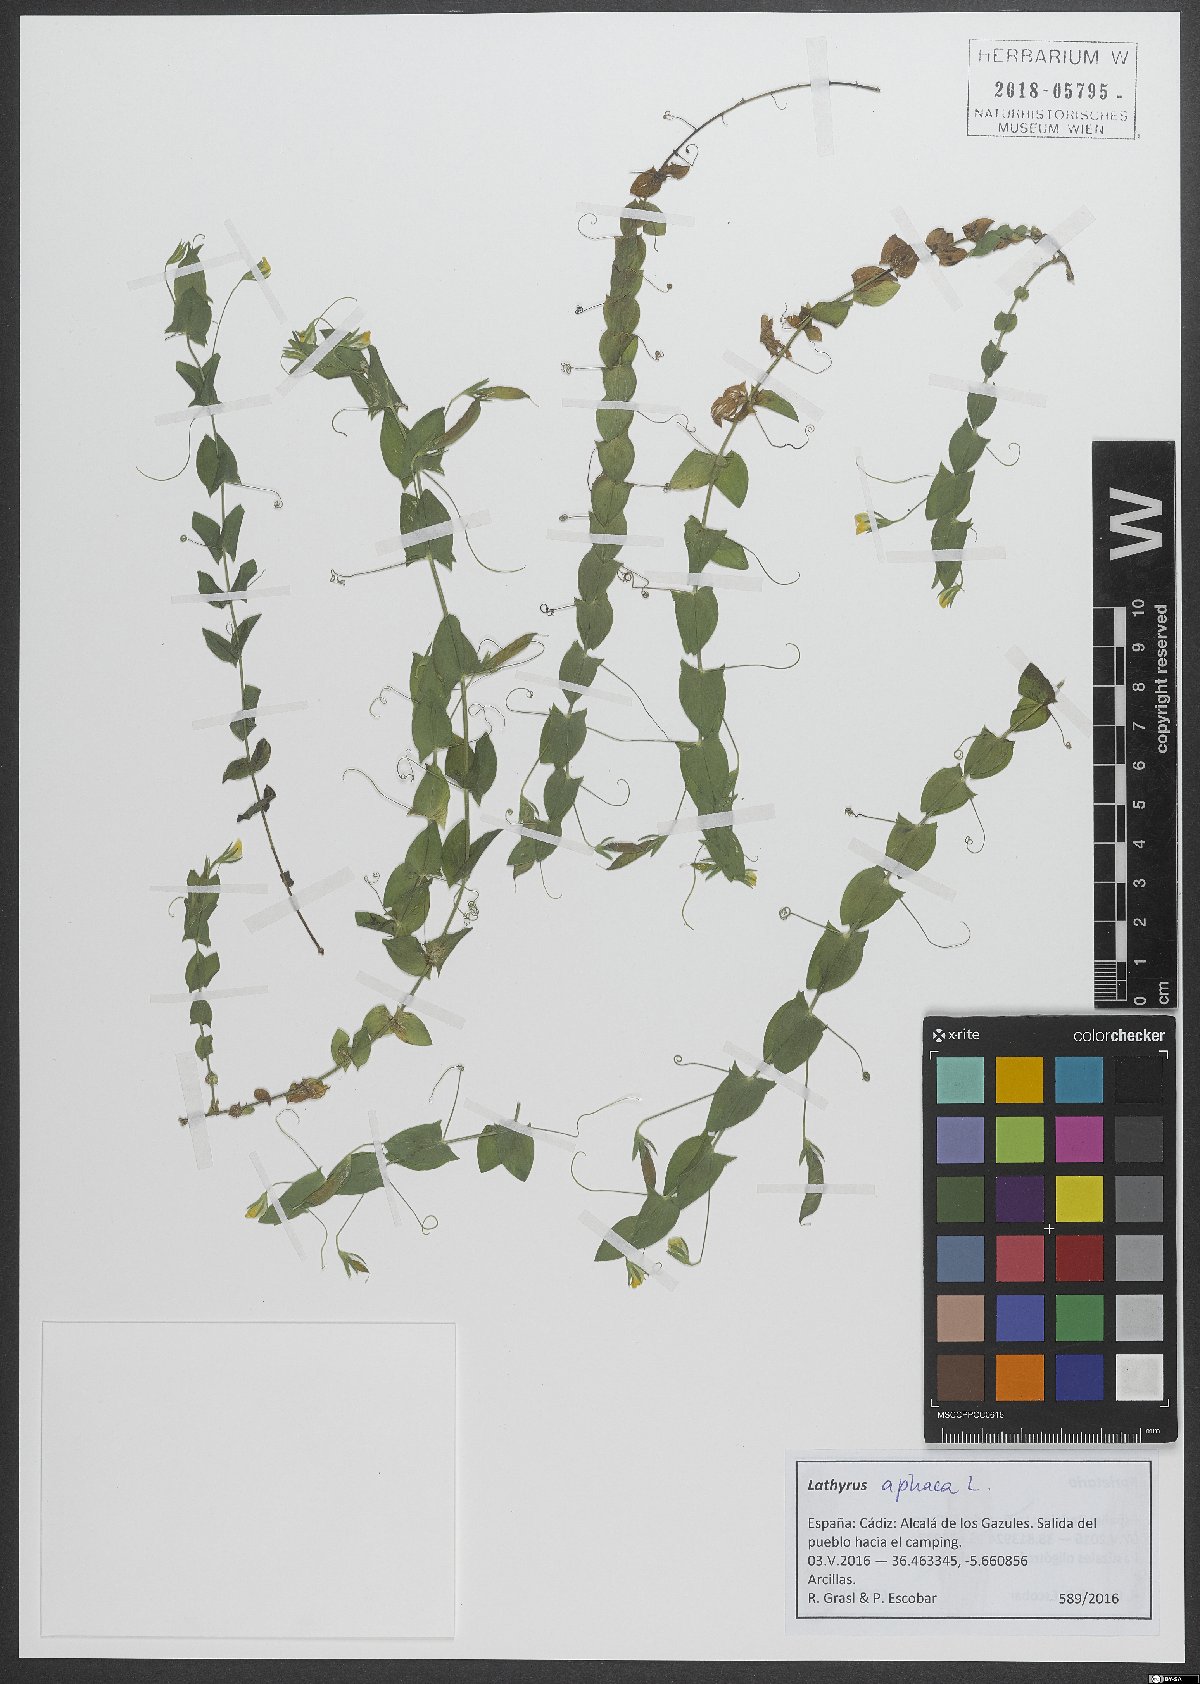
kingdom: Plantae
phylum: Tracheophyta
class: Magnoliopsida
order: Fabales
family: Fabaceae
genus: Lathyrus
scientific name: Lathyrus aphaca
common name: Yellow vetchling
